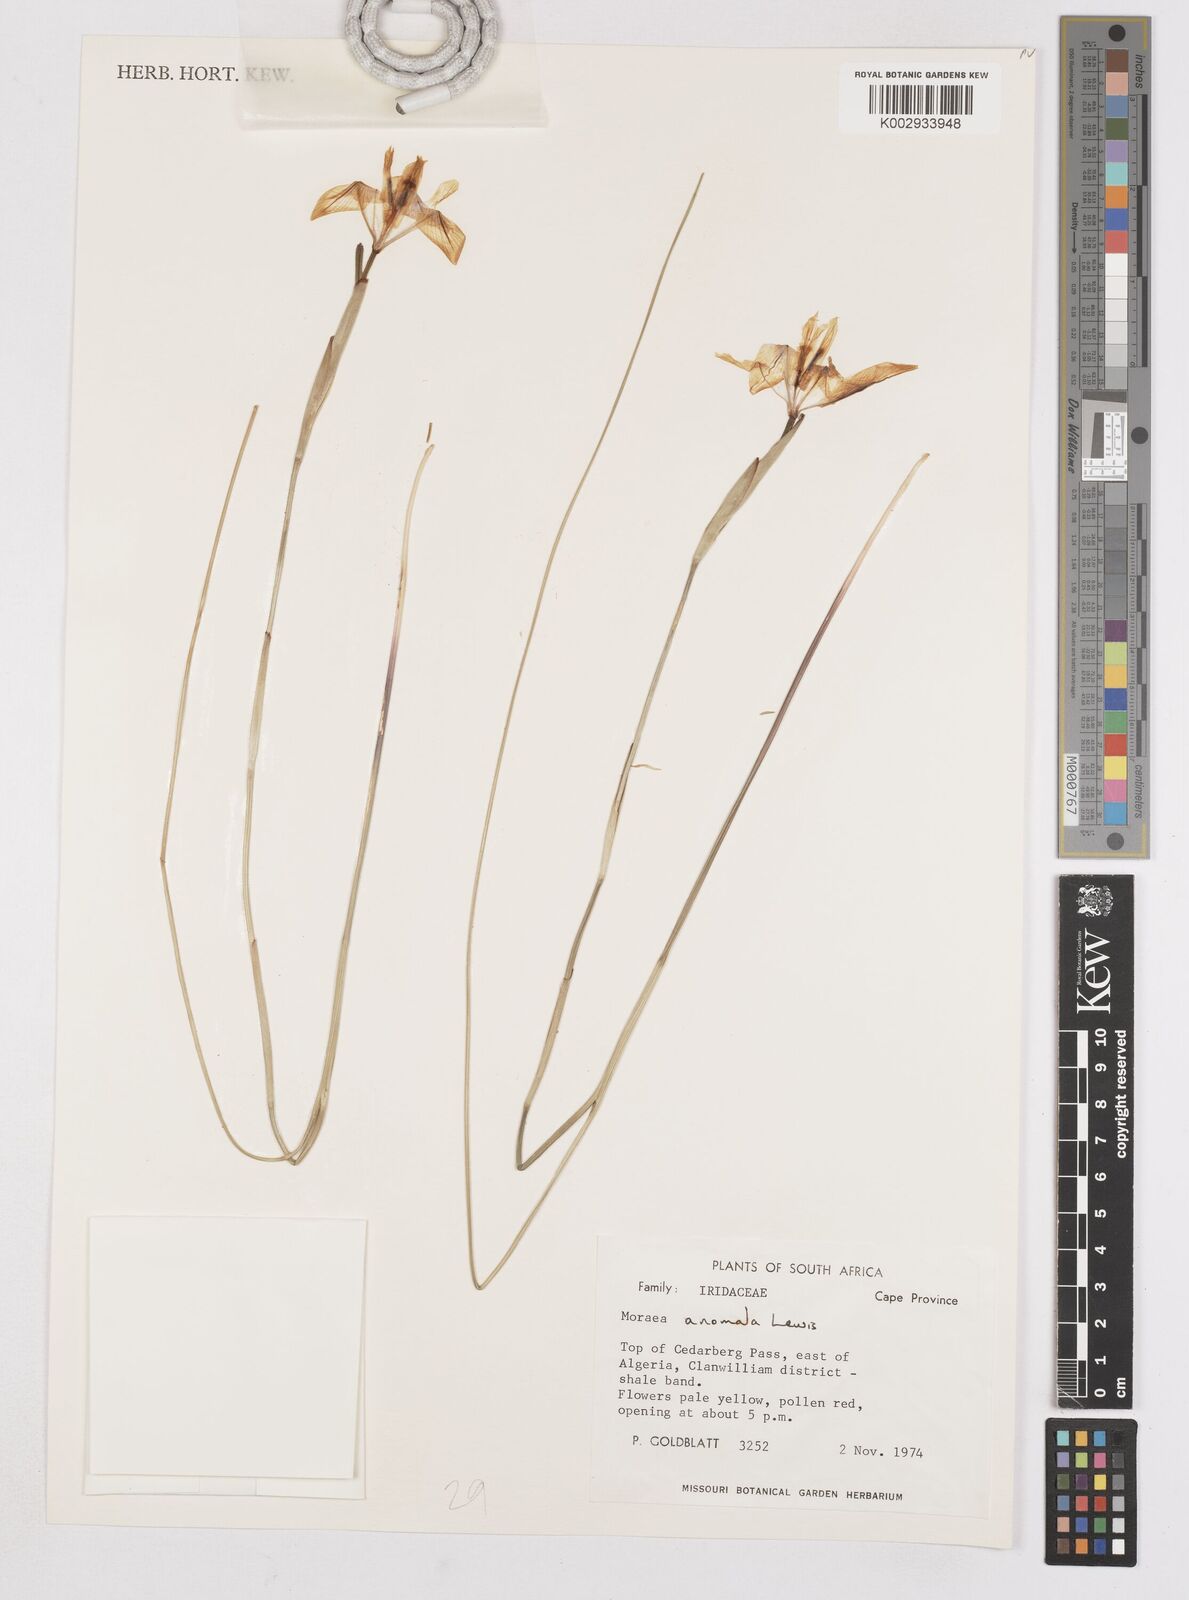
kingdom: Plantae
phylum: Tracheophyta
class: Liliopsida
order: Asparagales
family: Iridaceae
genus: Moraea
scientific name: Moraea anomala
